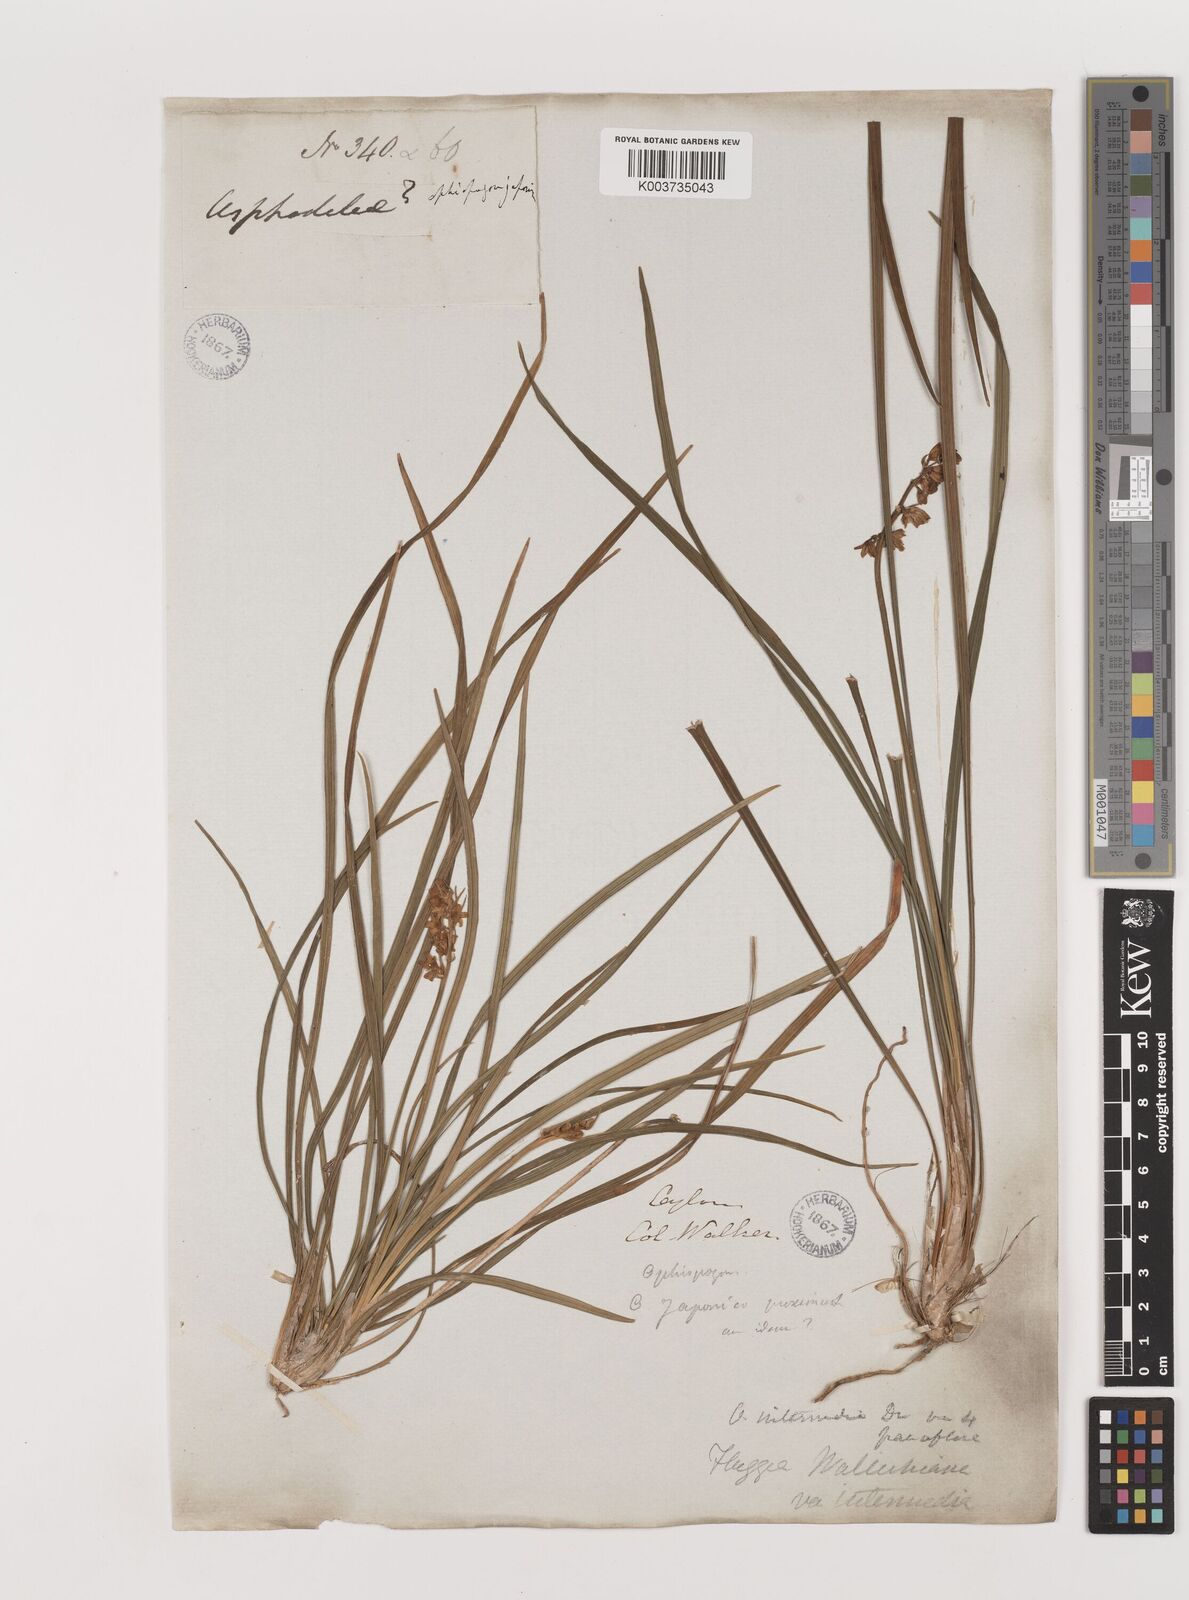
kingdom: Plantae
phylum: Tracheophyta
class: Liliopsida
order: Asparagales
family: Asparagaceae
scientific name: Asparagaceae
